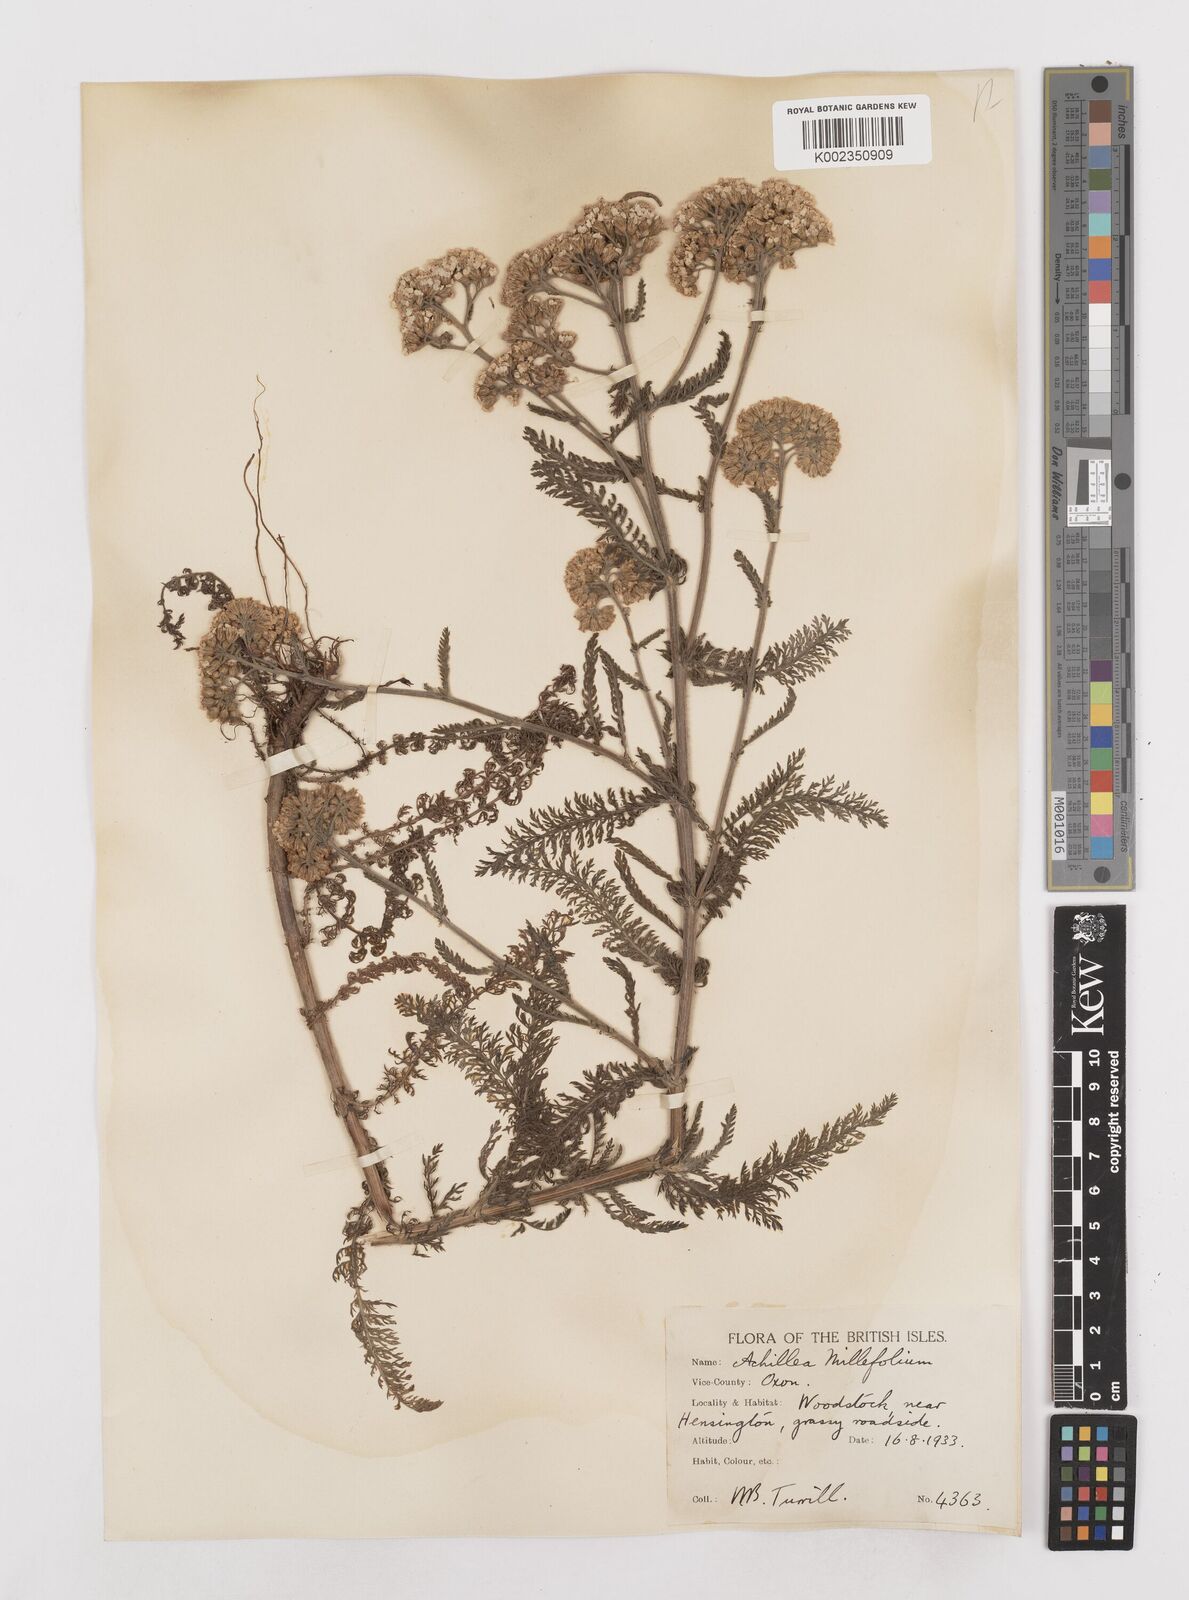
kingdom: Plantae
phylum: Tracheophyta
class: Magnoliopsida
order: Asterales
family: Asteraceae
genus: Achillea
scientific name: Achillea millefolium
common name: Yarrow
